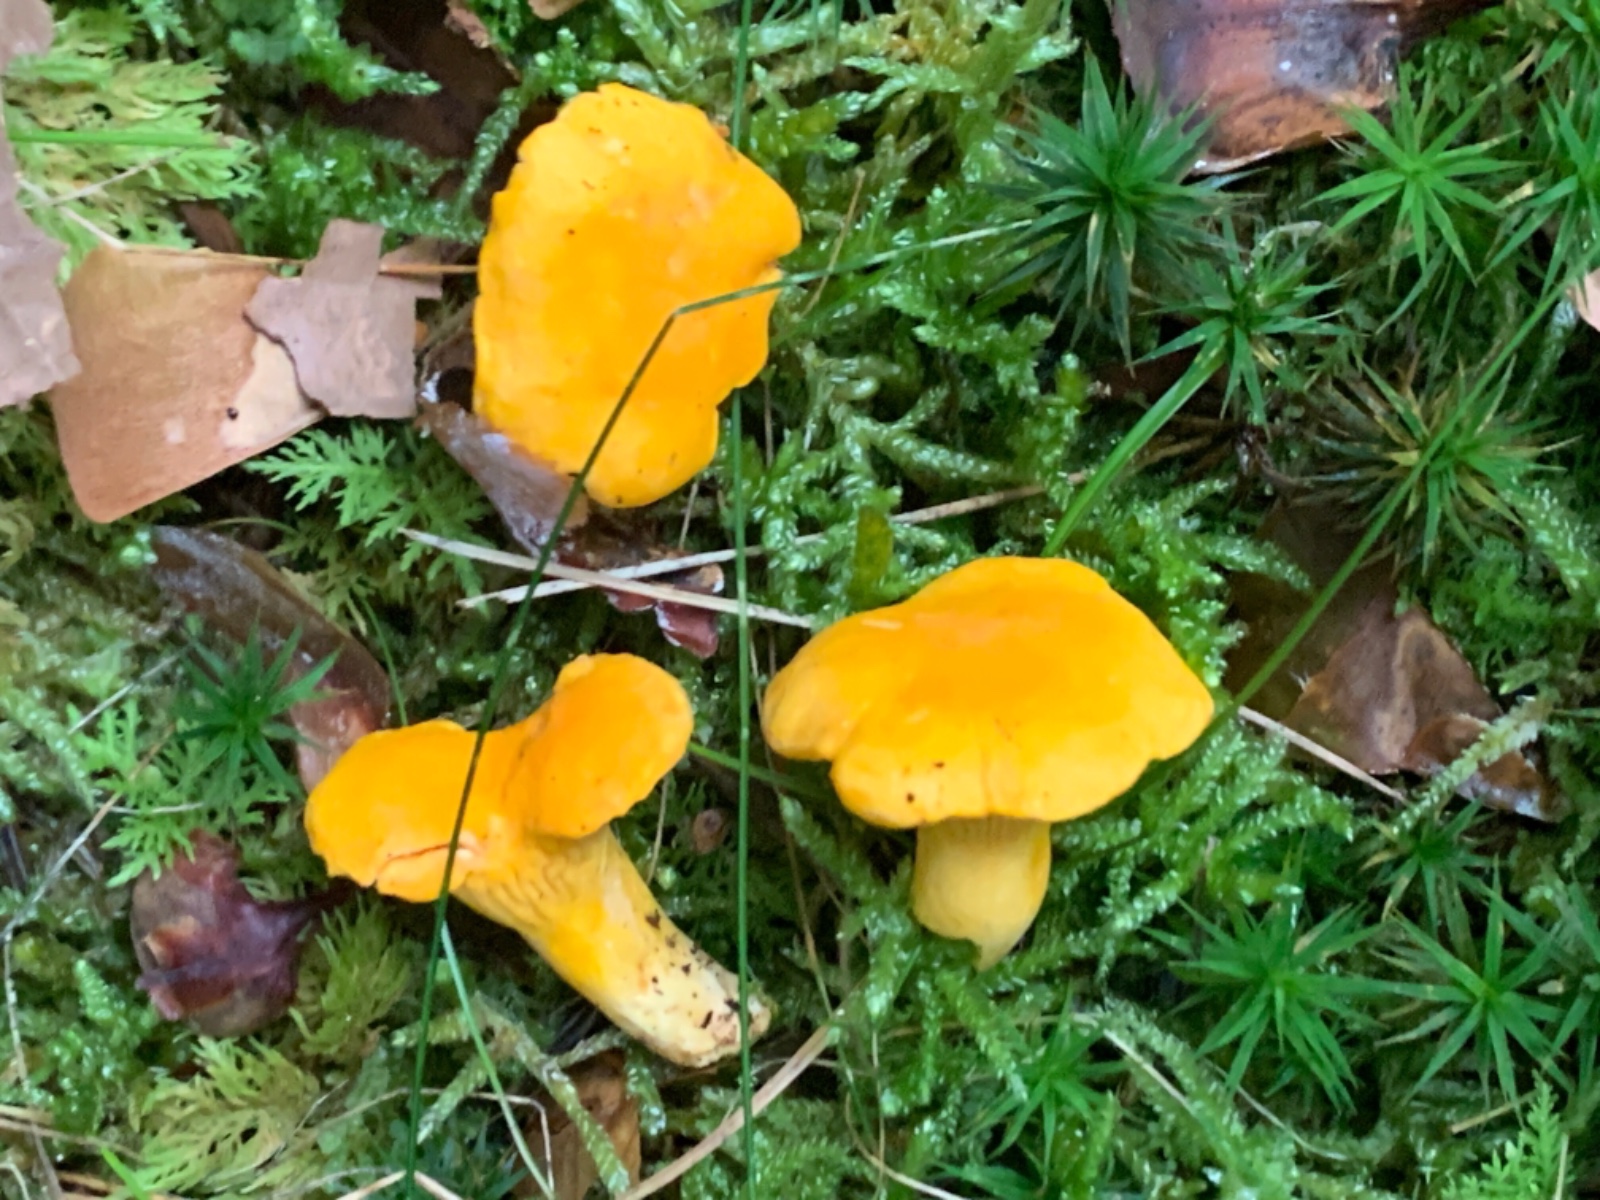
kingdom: Fungi
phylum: Basidiomycota
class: Agaricomycetes
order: Cantharellales
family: Hydnaceae
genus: Cantharellus
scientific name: Cantharellus cibarius
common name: almindelig kantarel
